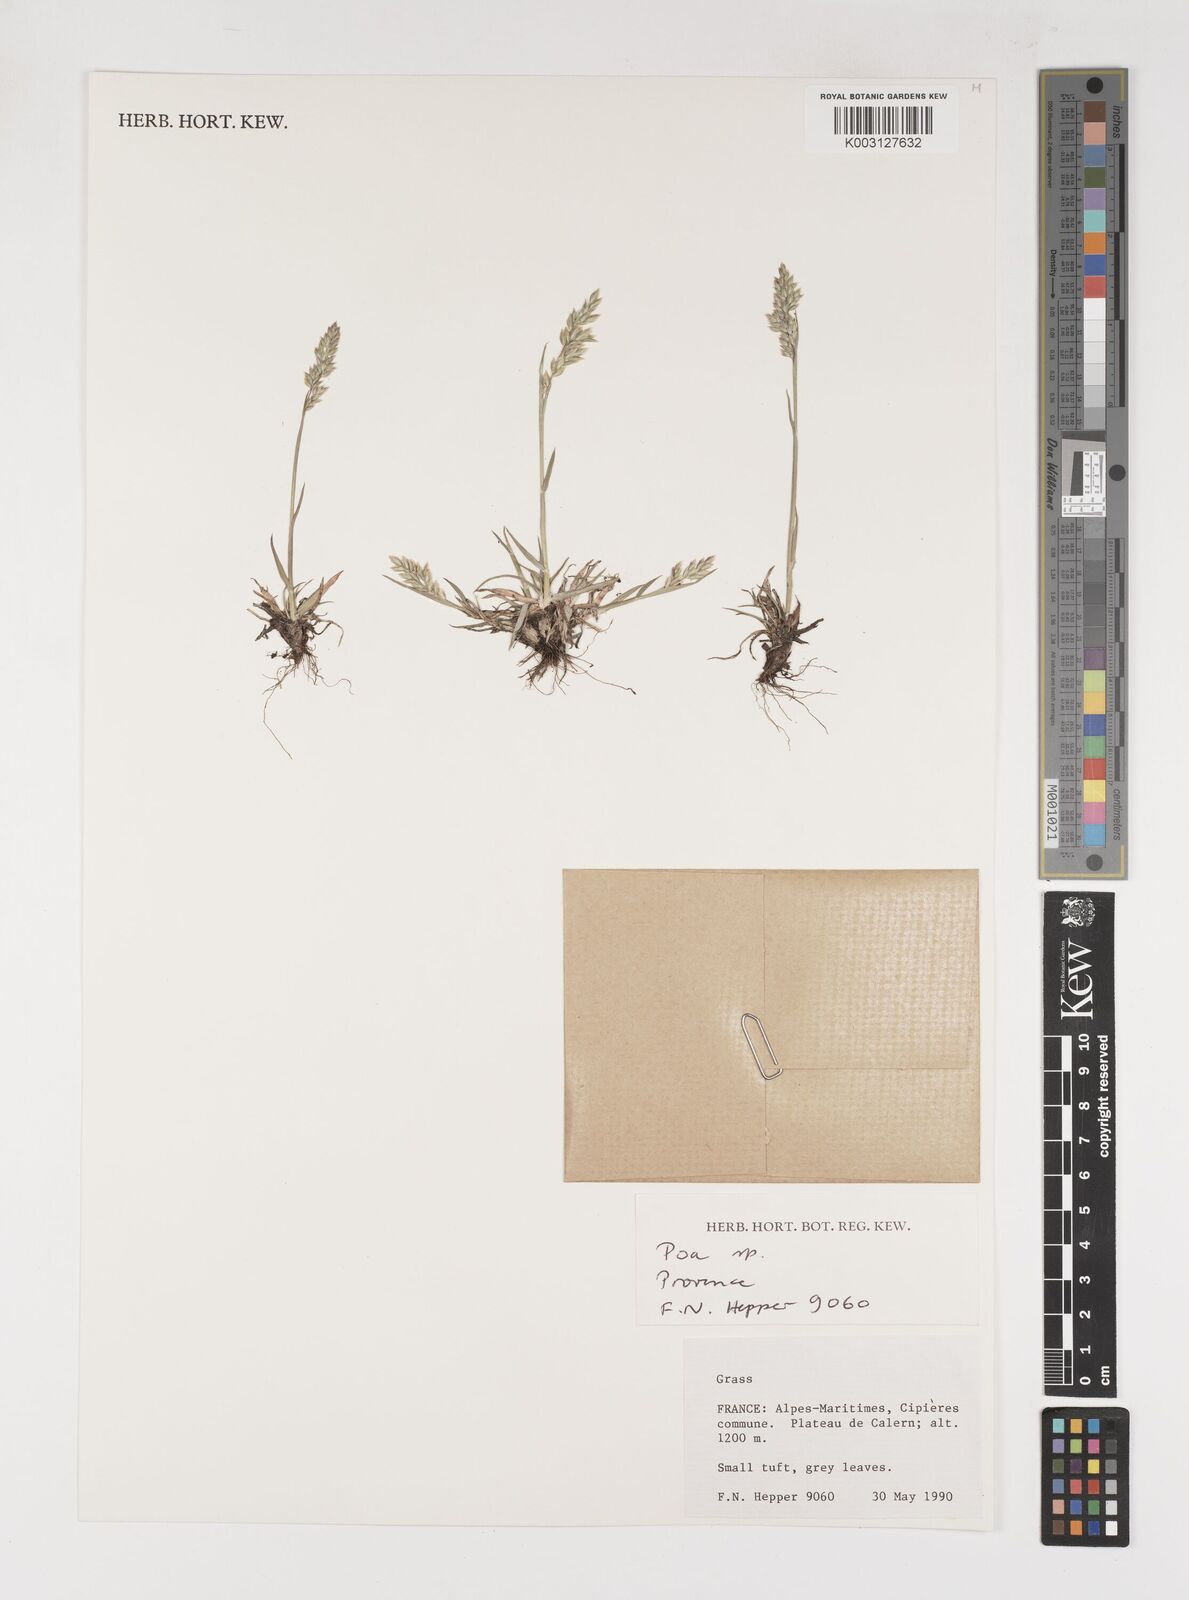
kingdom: Plantae
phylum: Tracheophyta
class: Liliopsida
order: Poales
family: Poaceae
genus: Poa
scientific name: Poa
